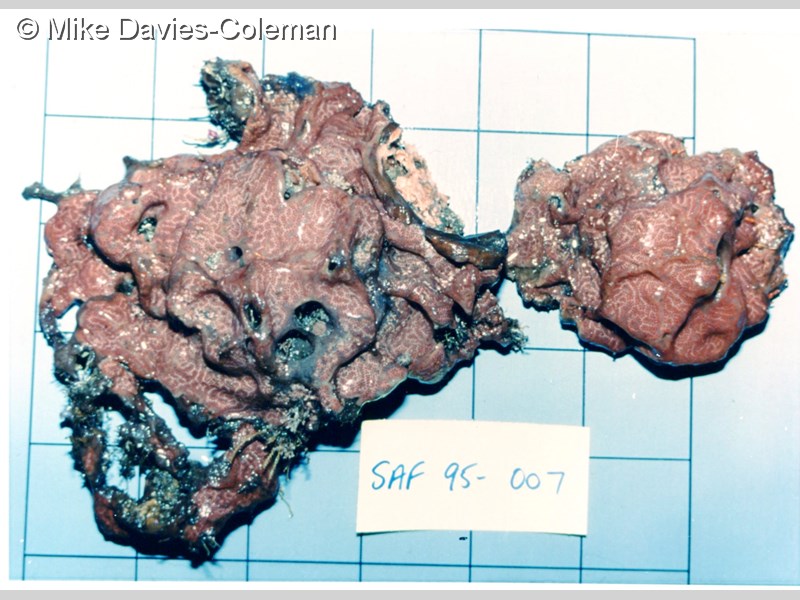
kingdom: Animalia
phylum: Chordata
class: Ascidiacea
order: Aplousobranchia
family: Didemnidae
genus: Didemnum
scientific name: Didemnum
